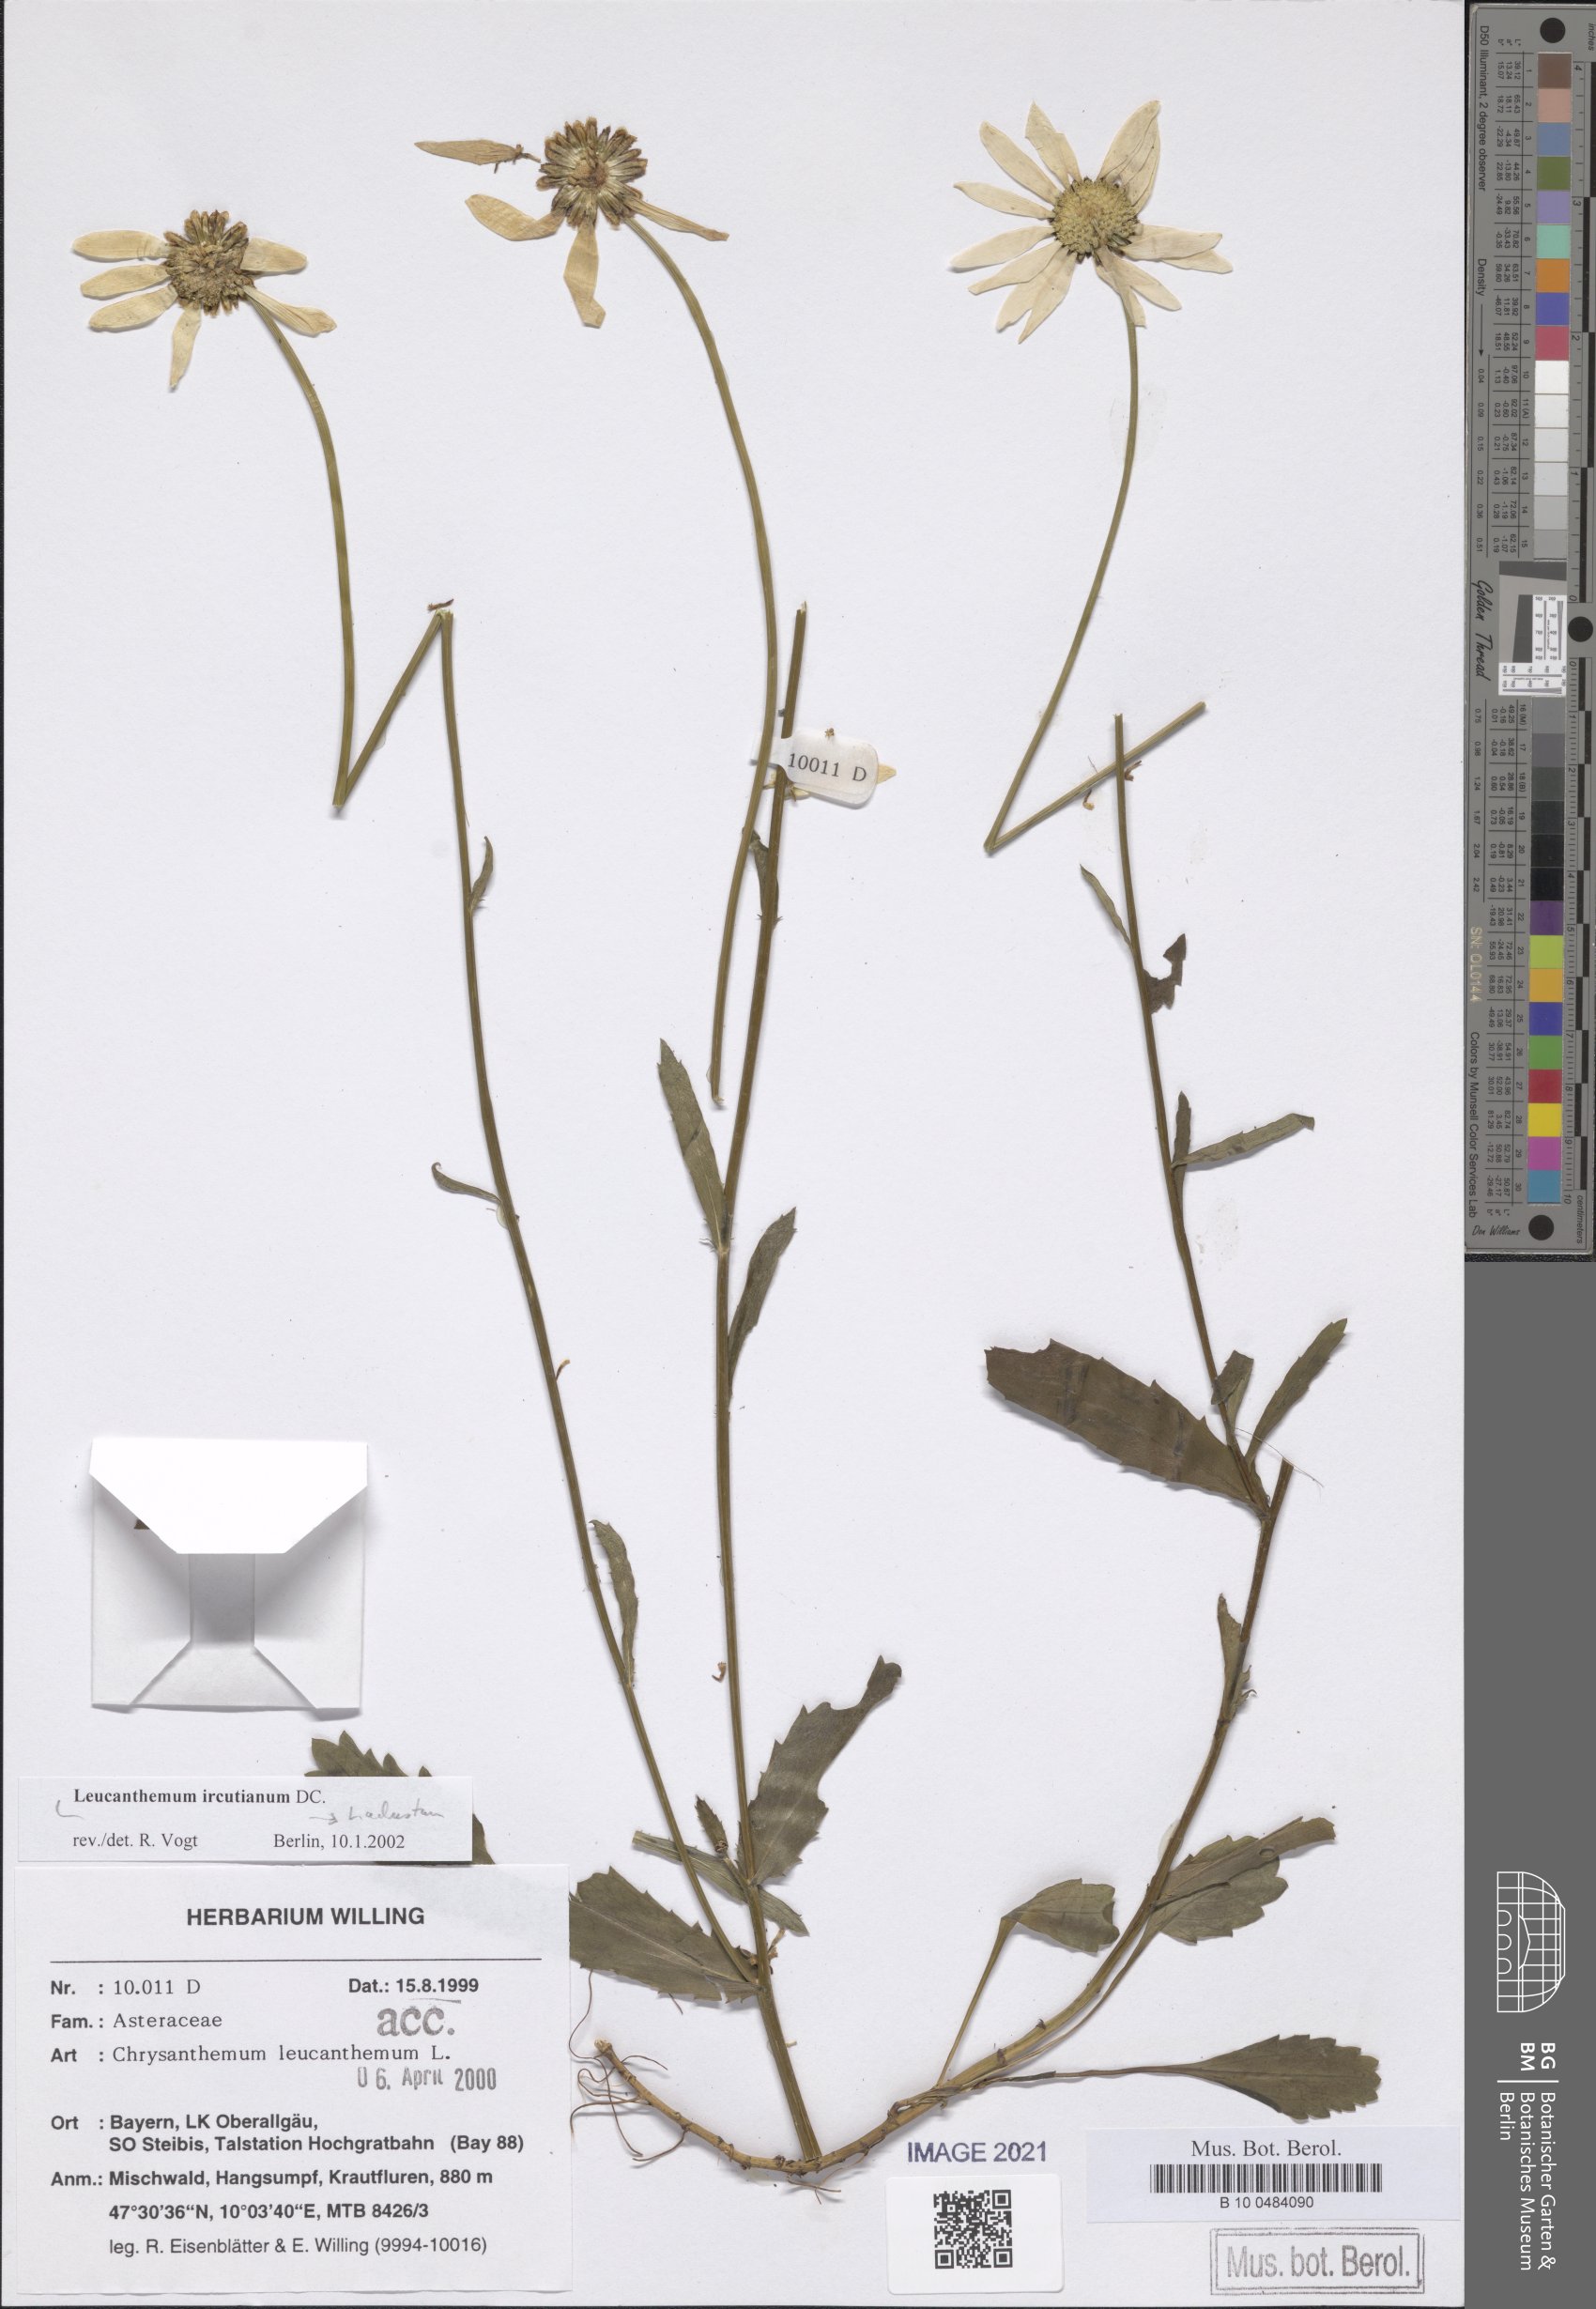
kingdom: Plantae
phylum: Tracheophyta
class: Magnoliopsida
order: Asterales
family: Asteraceae
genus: Leucanthemum
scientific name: Leucanthemum ircutianum
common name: Daisy
